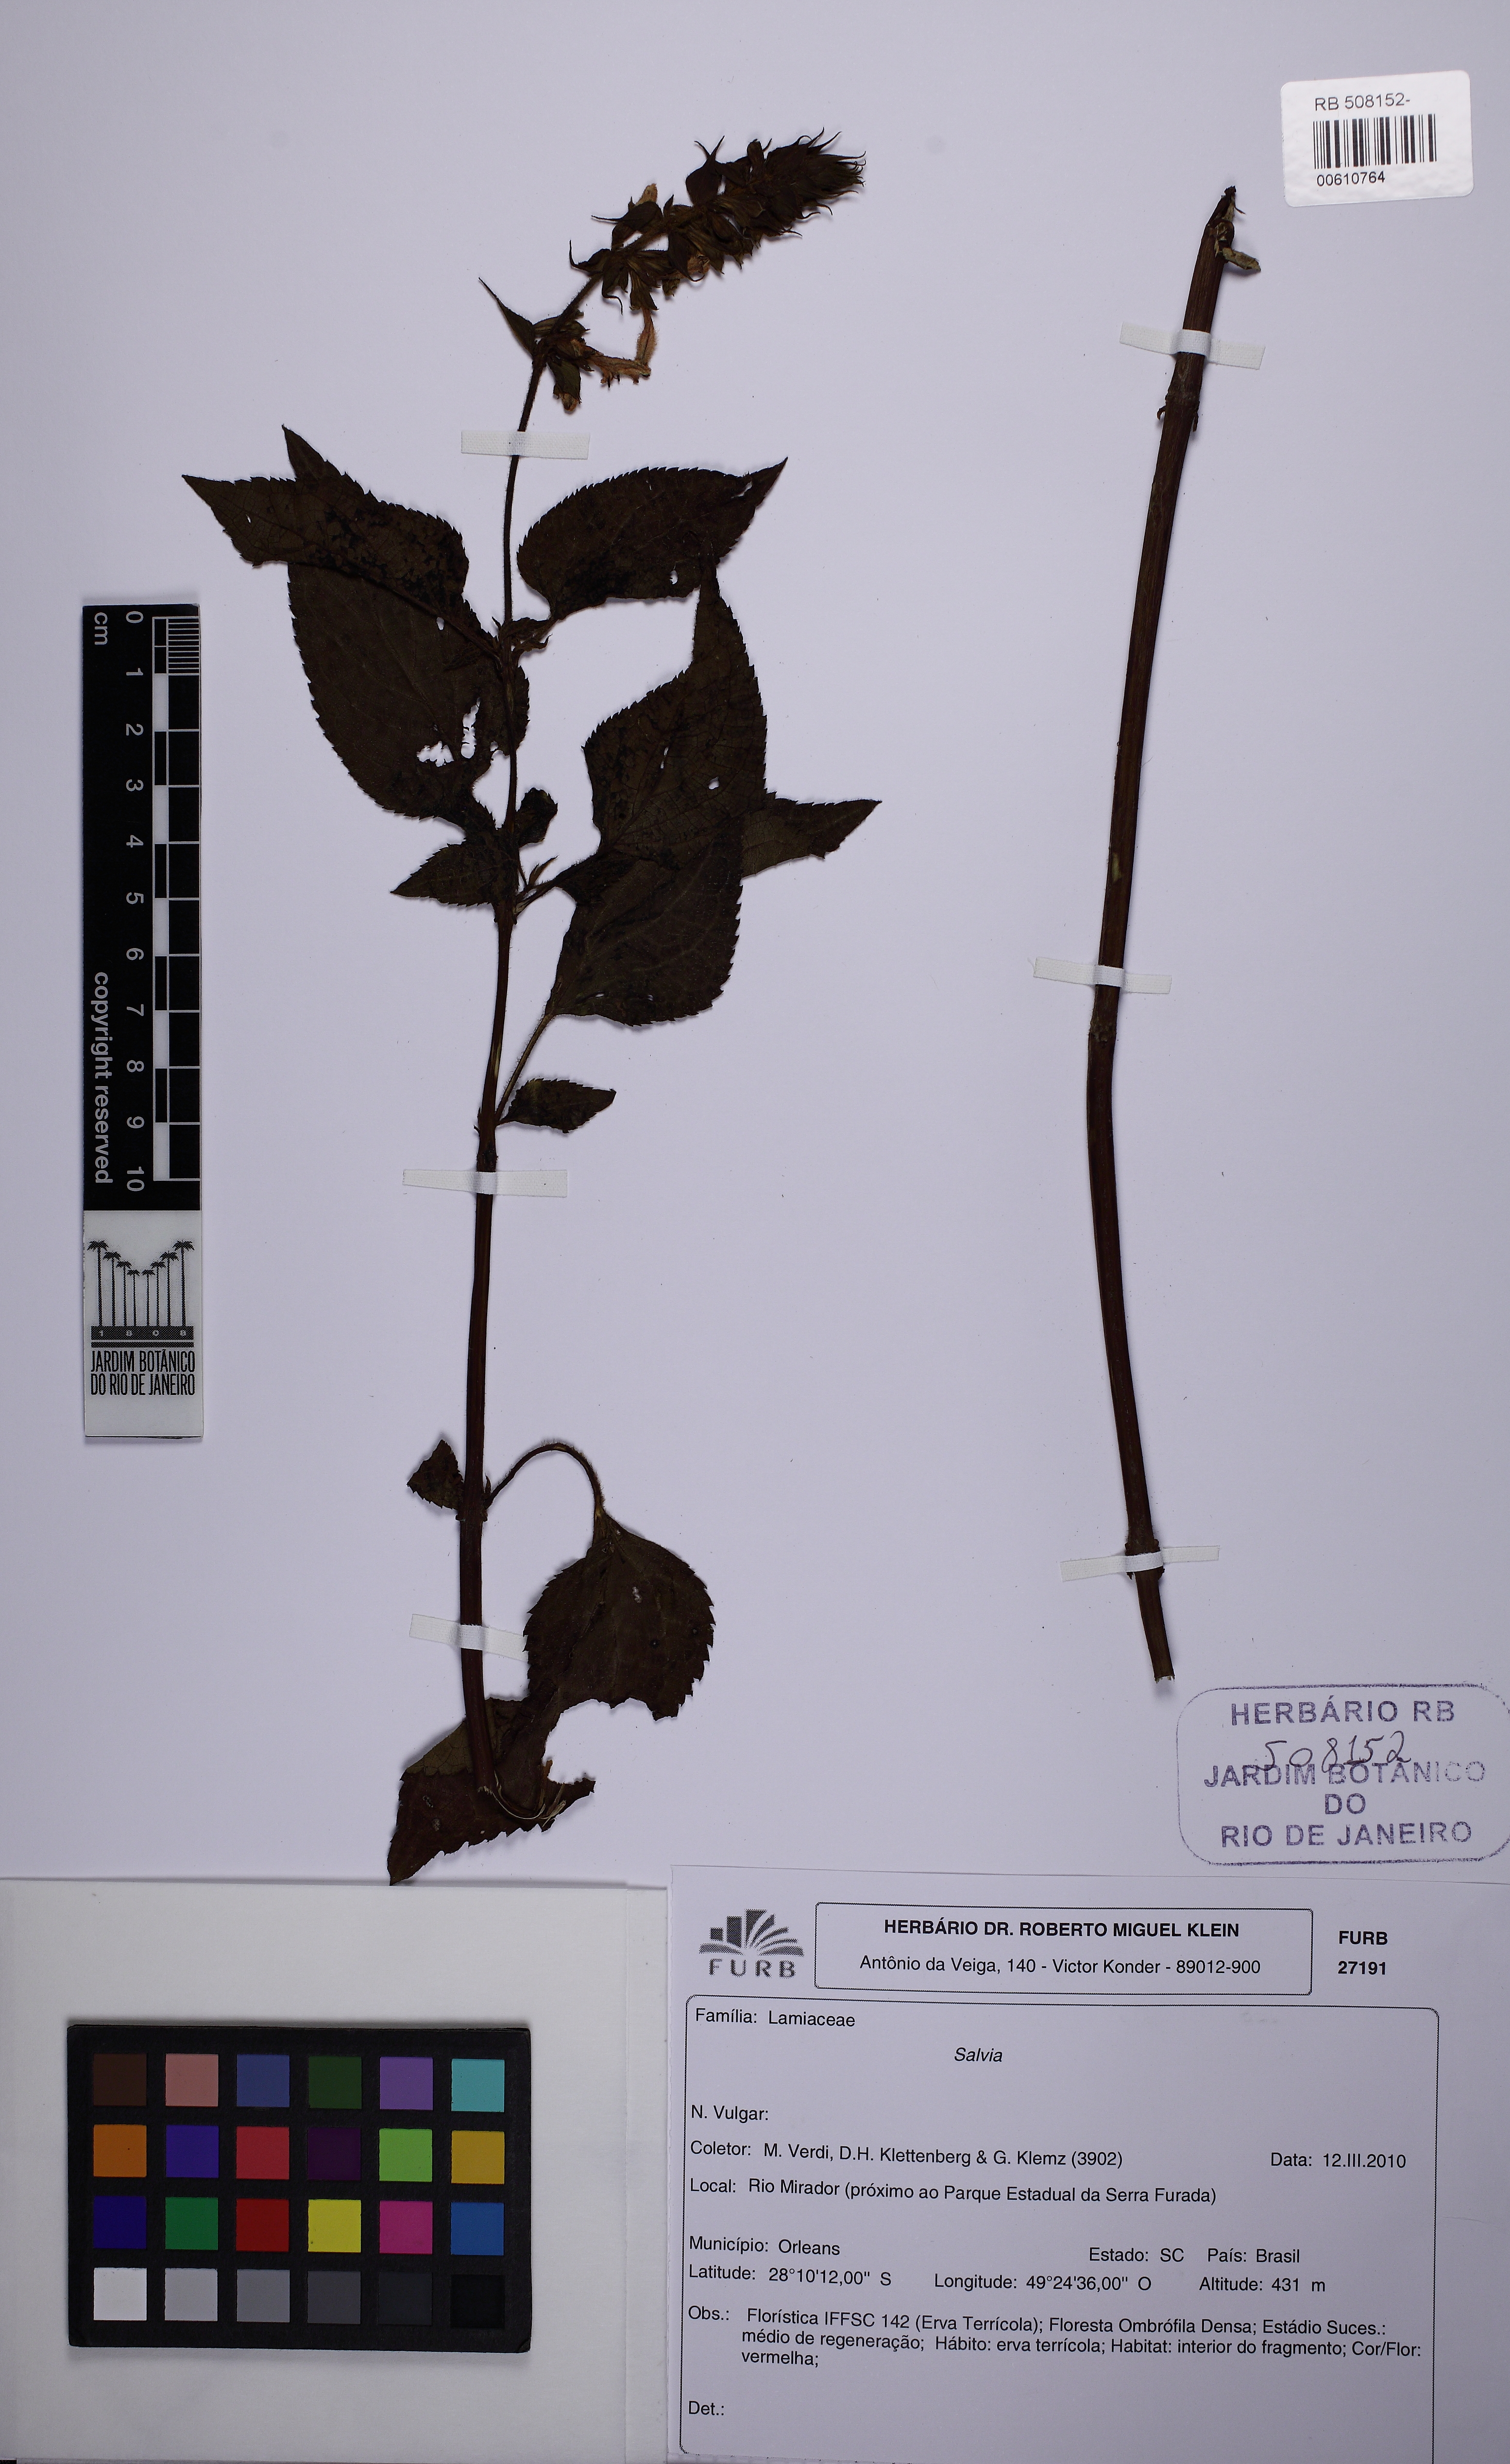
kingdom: Plantae
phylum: Tracheophyta
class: Magnoliopsida
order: Lamiales
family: Lamiaceae
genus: Salvia
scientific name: Salvia melissiflora
